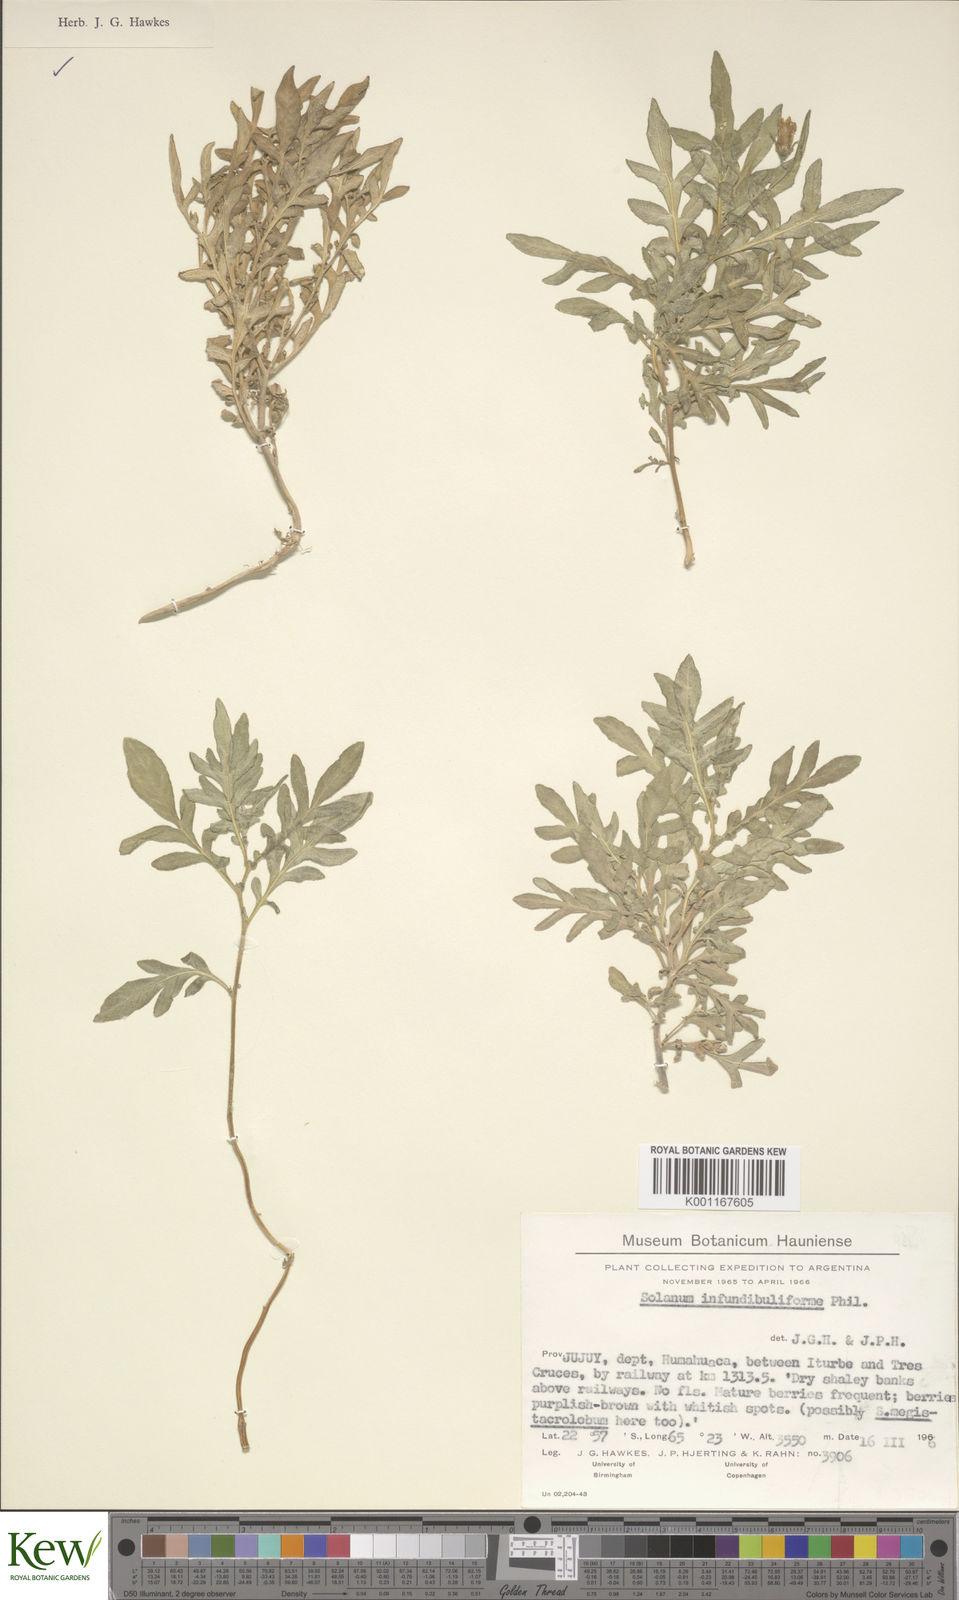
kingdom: Plantae
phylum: Tracheophyta
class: Magnoliopsida
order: Solanales
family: Solanaceae
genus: Solanum
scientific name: Solanum infundibuliforme
